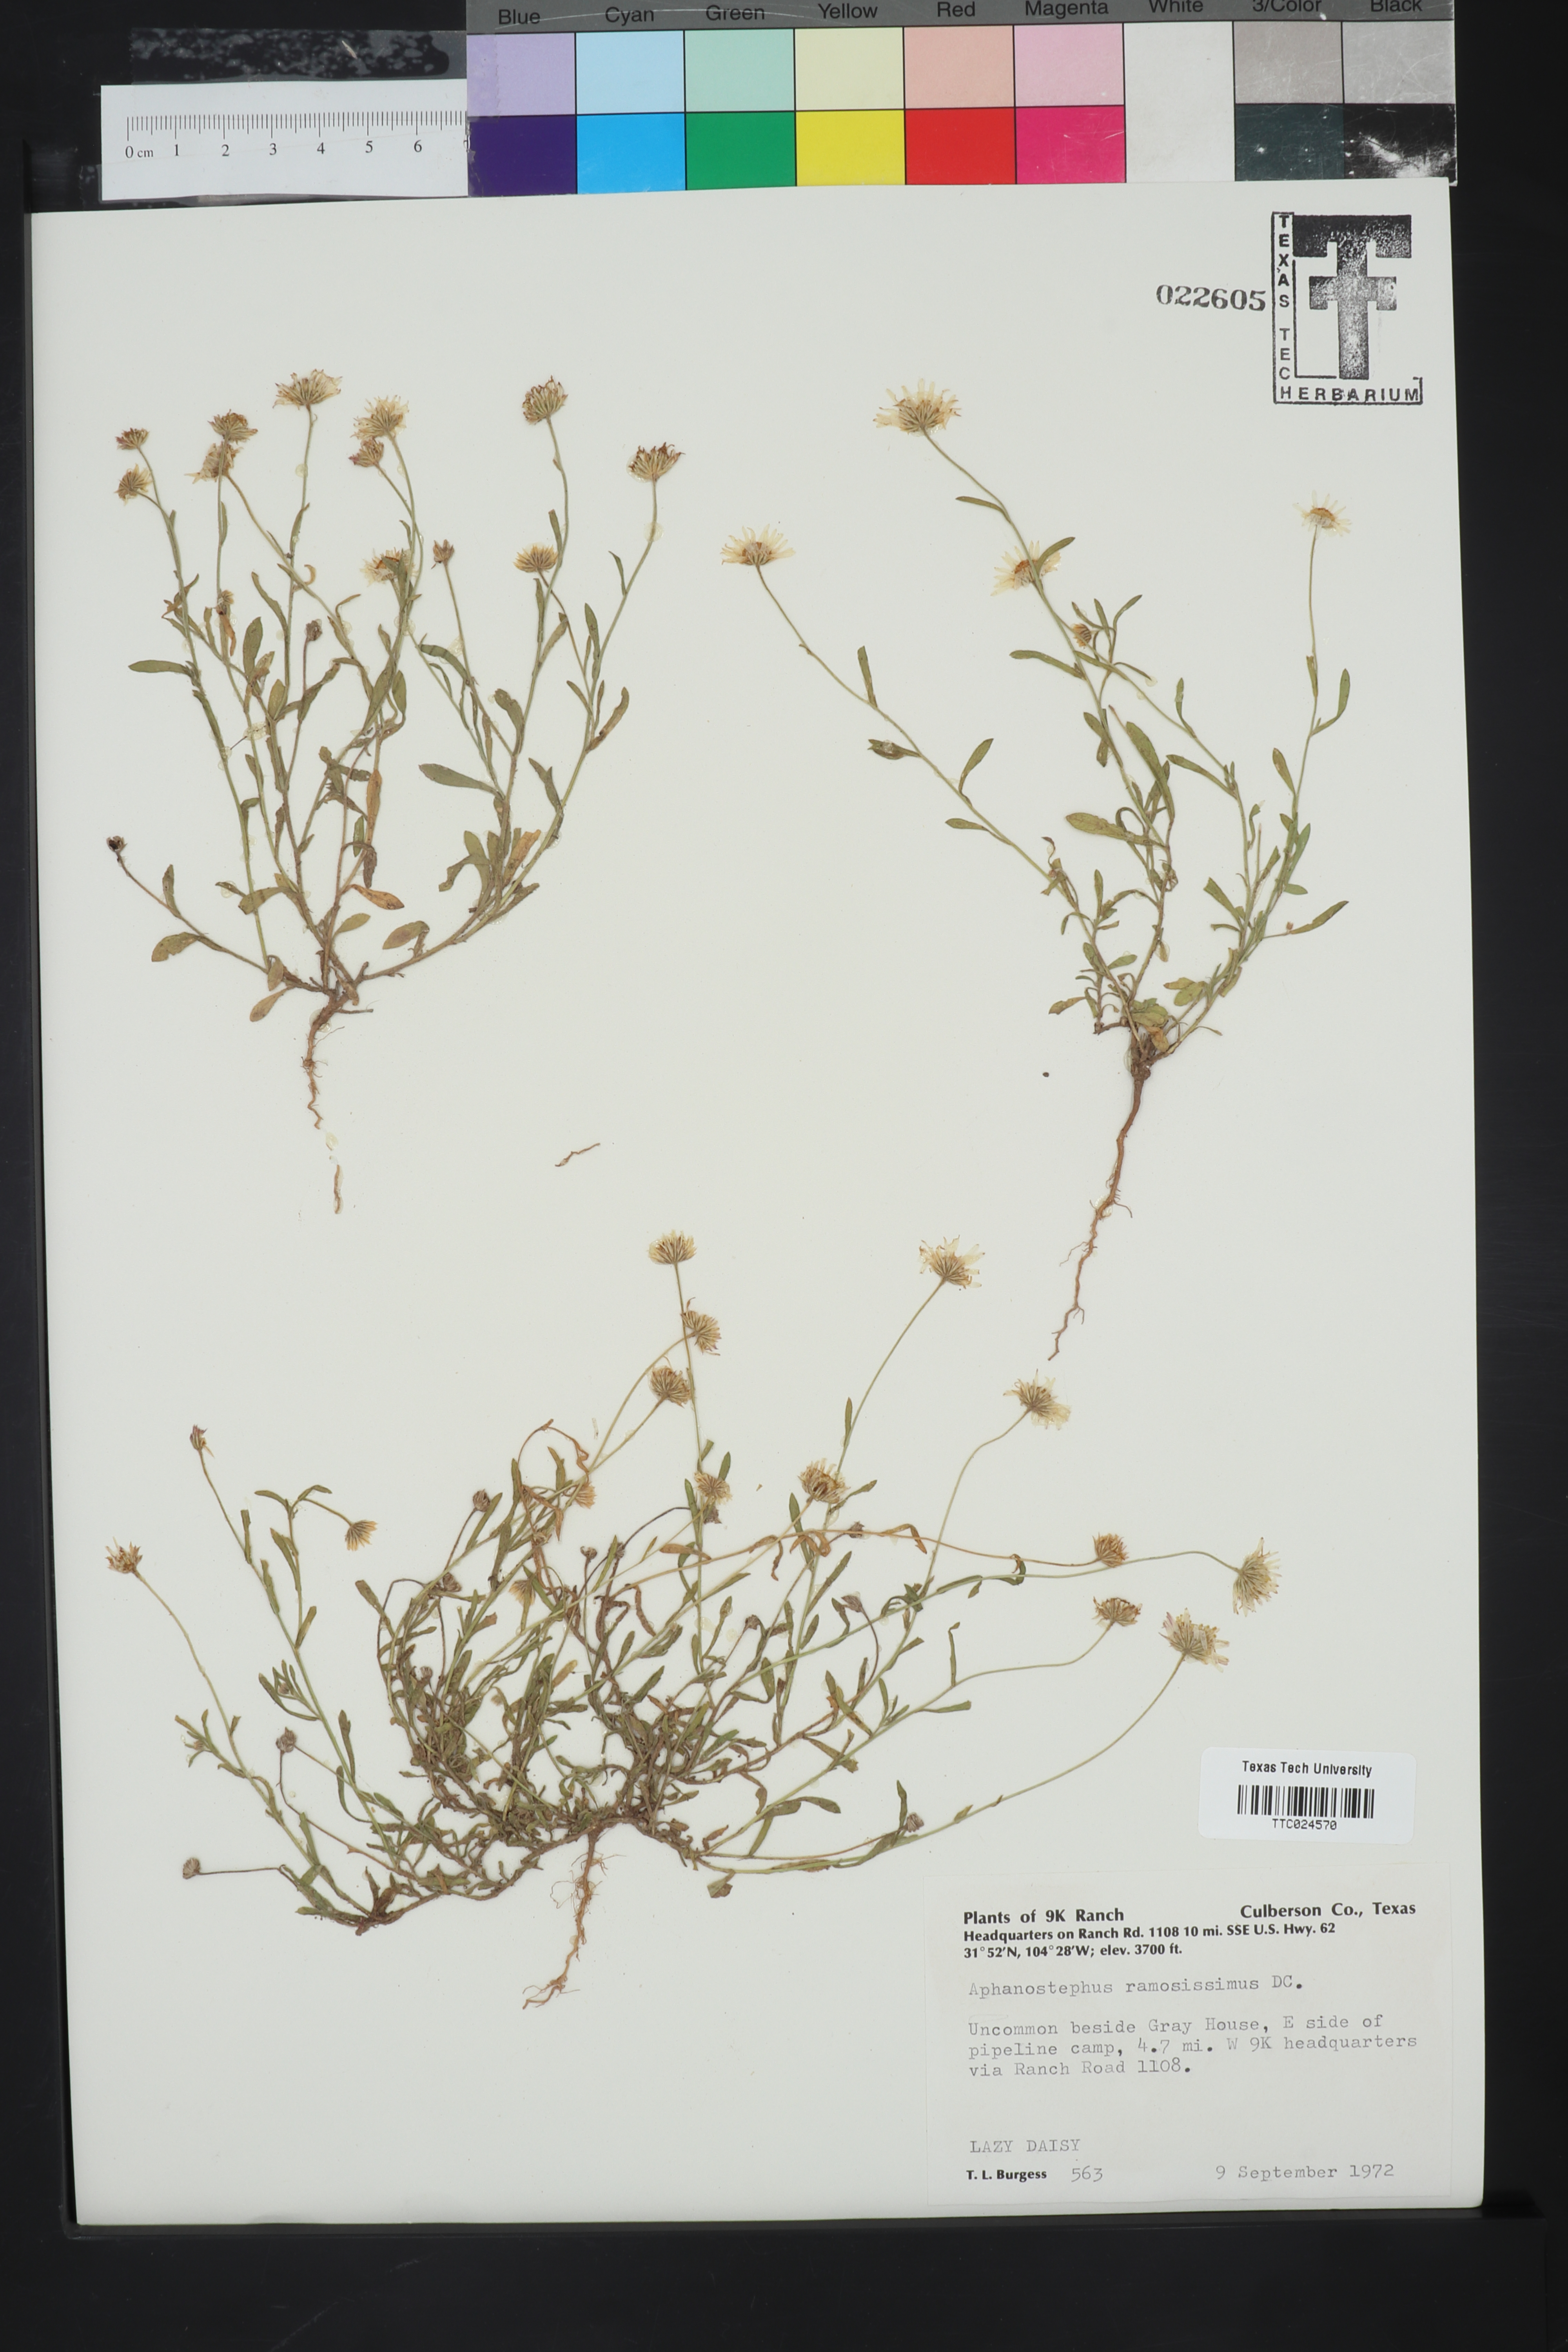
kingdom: Plantae
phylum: Tracheophyta
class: Magnoliopsida
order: Asterales
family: Asteraceae
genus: Aphanostephus
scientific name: Aphanostephus ramosissimus
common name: Plains lazy daisy
